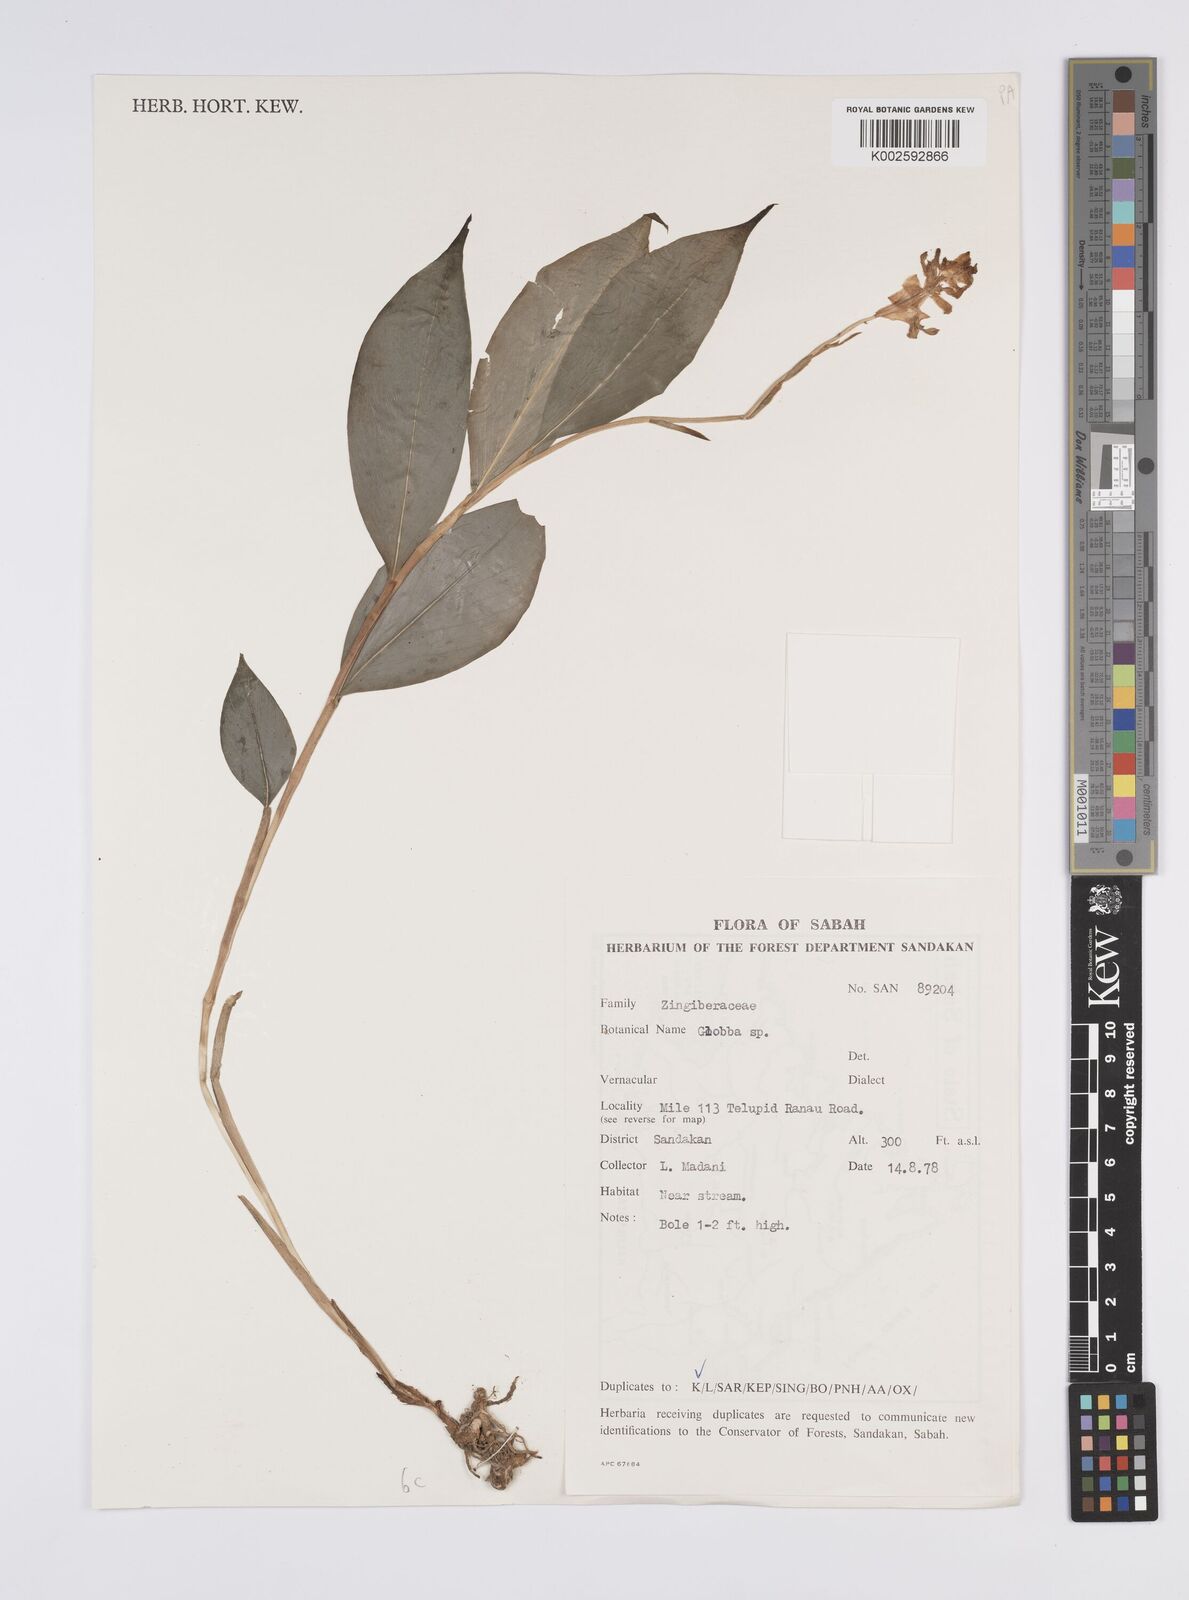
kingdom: Plantae
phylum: Tracheophyta
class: Liliopsida
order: Zingiberales
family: Zingiberaceae
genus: Globba
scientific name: Globba atrosanguinea
